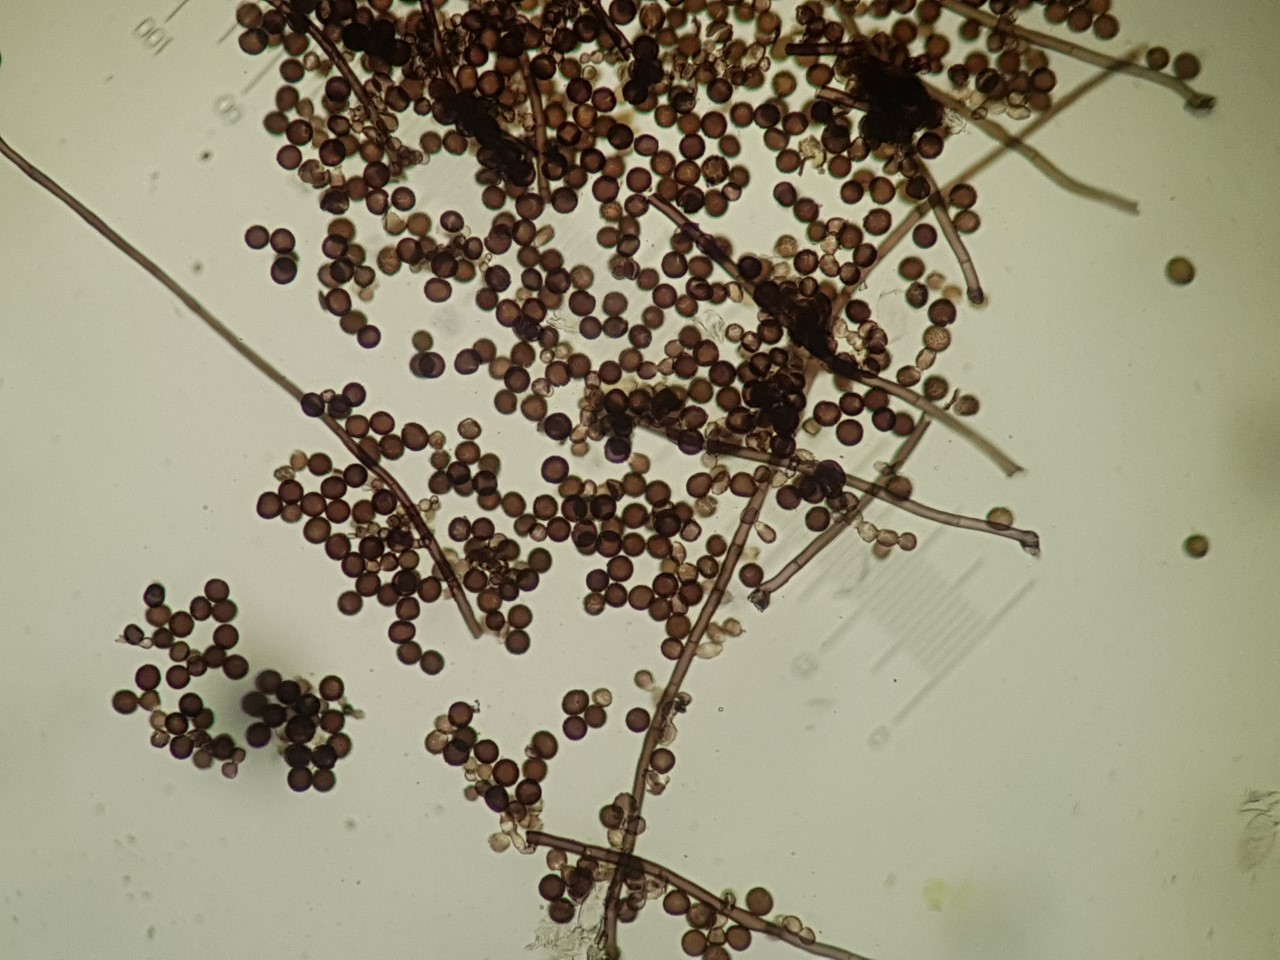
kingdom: Fungi
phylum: Ascomycota
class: Dothideomycetes
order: Pleosporales
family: Periconiaceae
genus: Periconia
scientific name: Periconia hispidula
